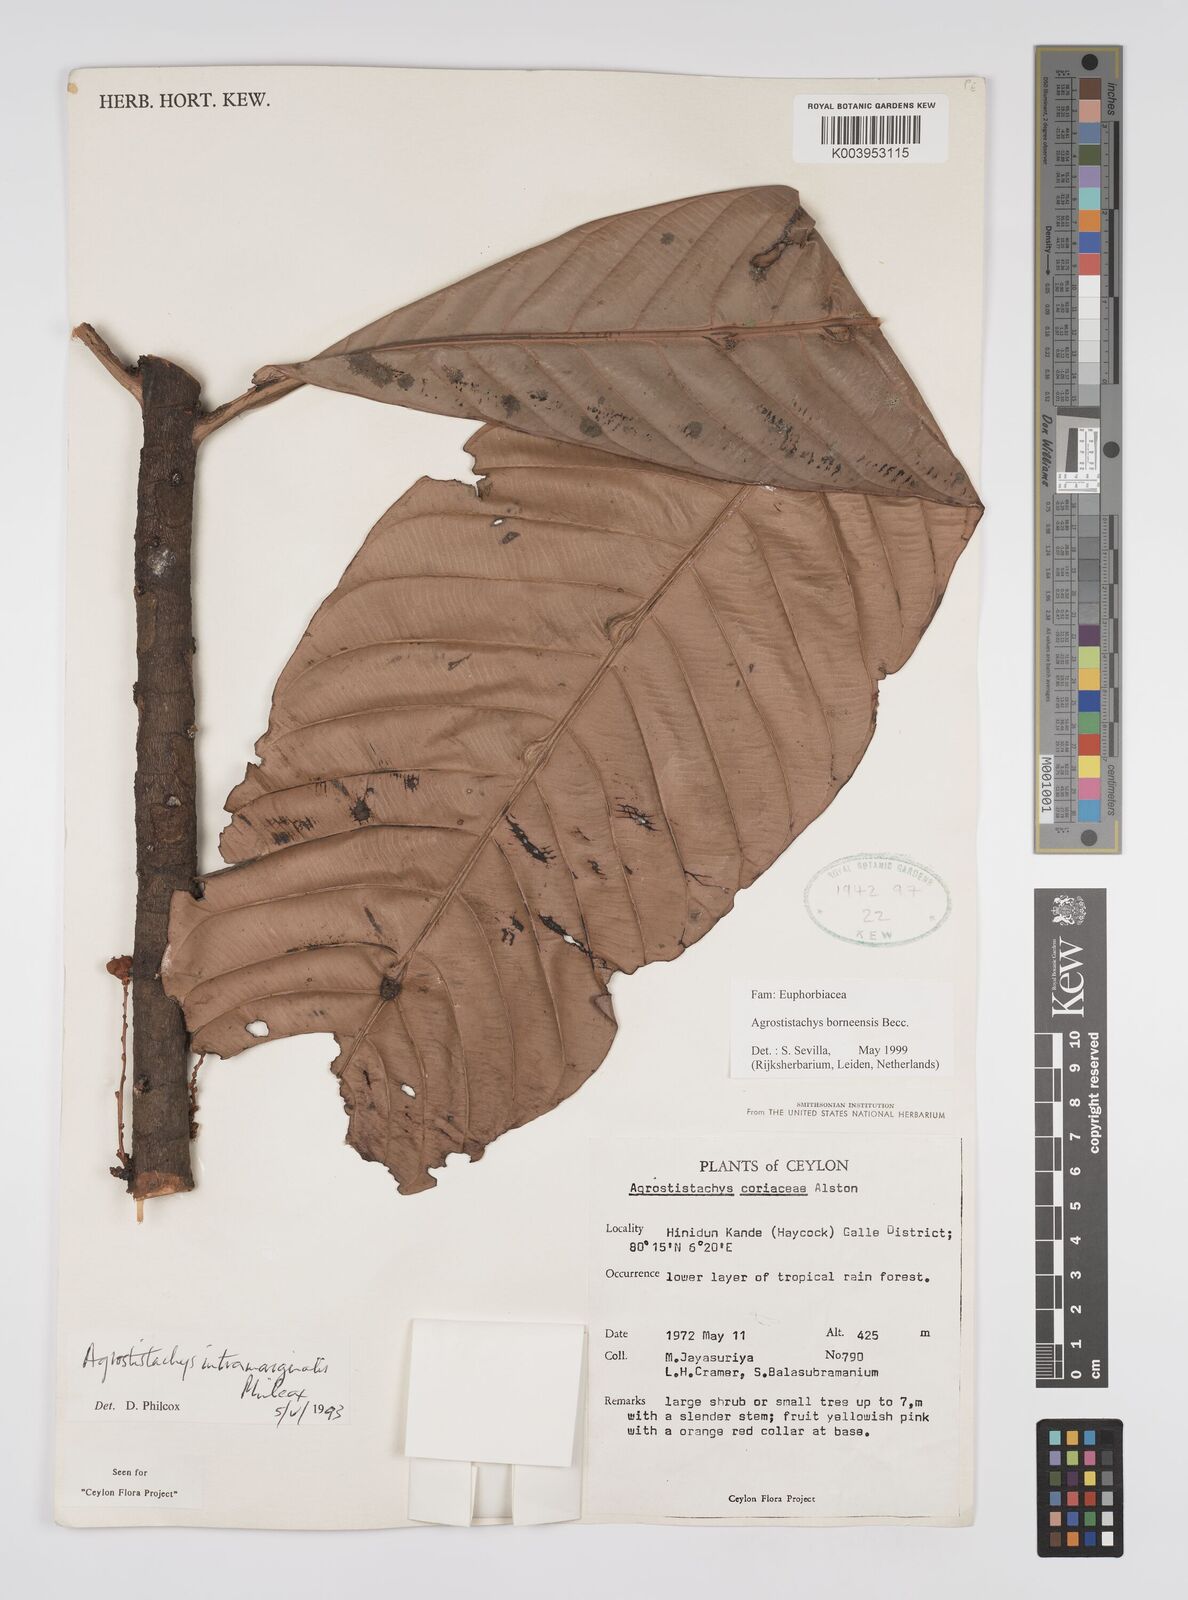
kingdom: Plantae
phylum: Tracheophyta
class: Magnoliopsida
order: Malpighiales
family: Euphorbiaceae
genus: Agrostistachys
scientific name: Agrostistachys borneensis
